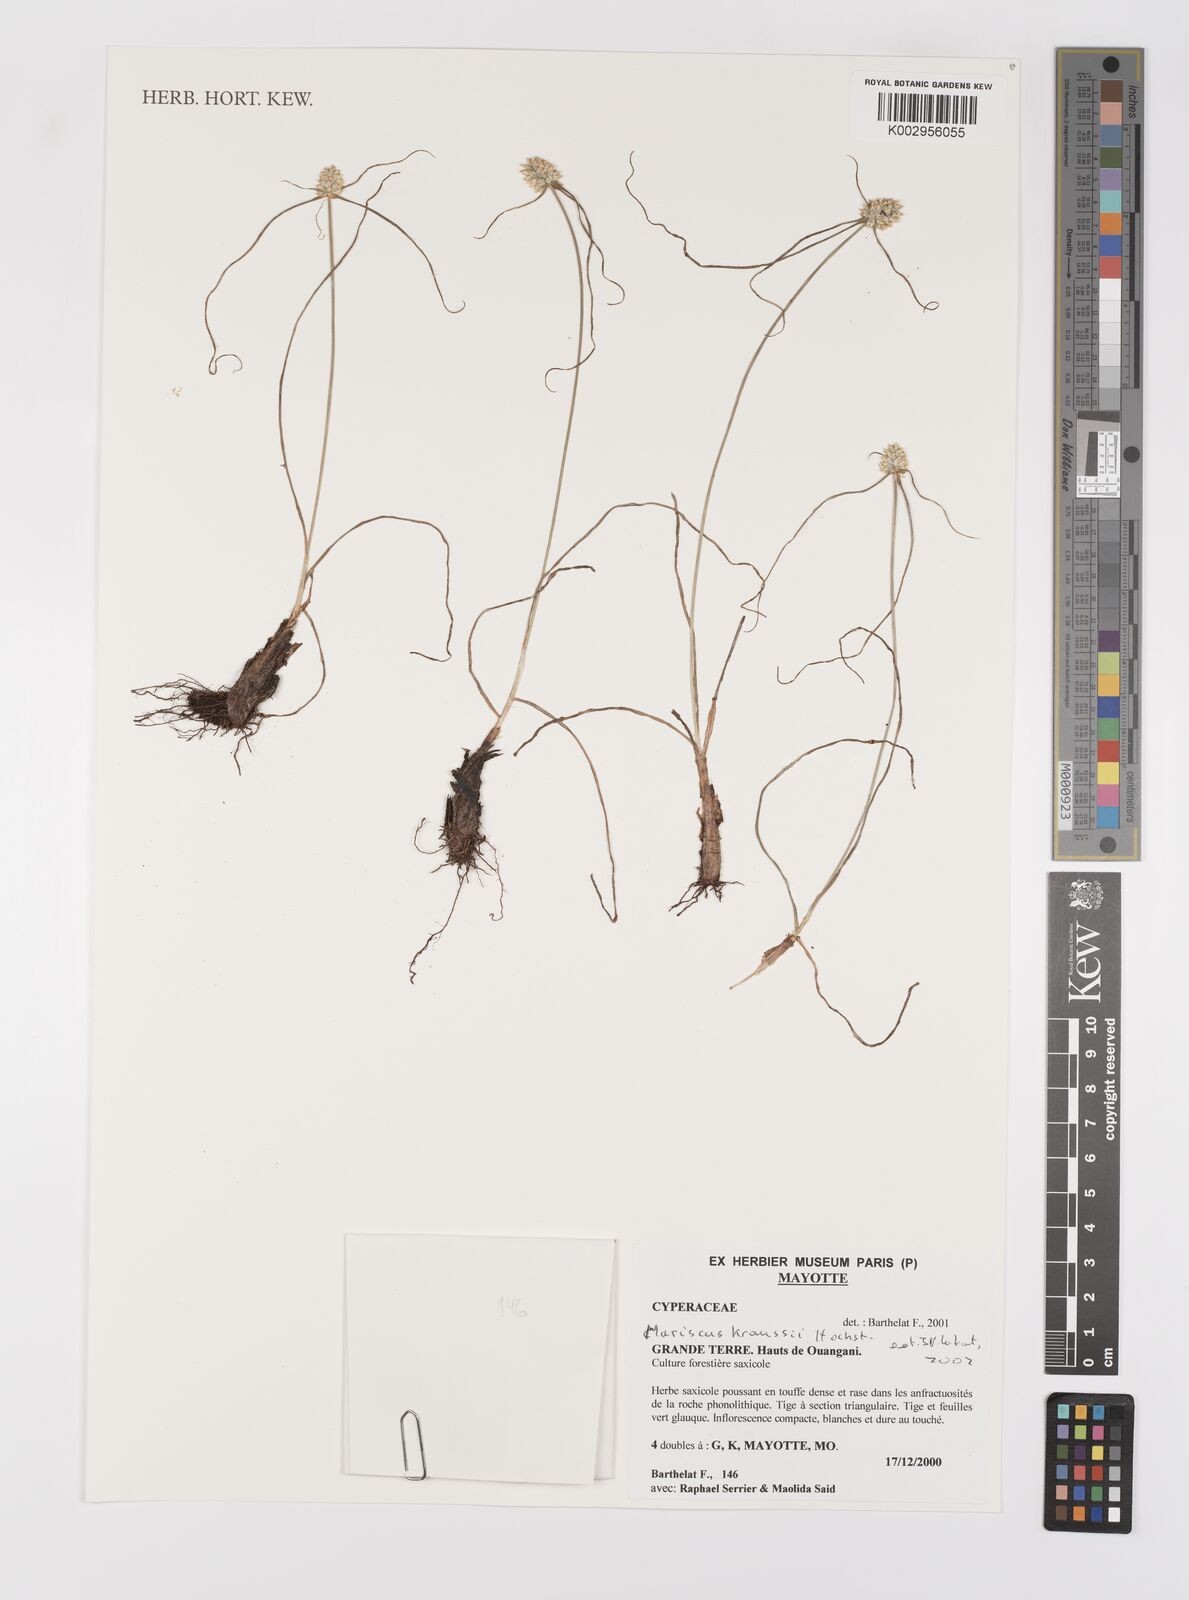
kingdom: Plantae
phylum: Tracheophyta
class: Liliopsida
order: Poales
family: Cyperaceae
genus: Cyperus
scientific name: Cyperus macrocarpus
